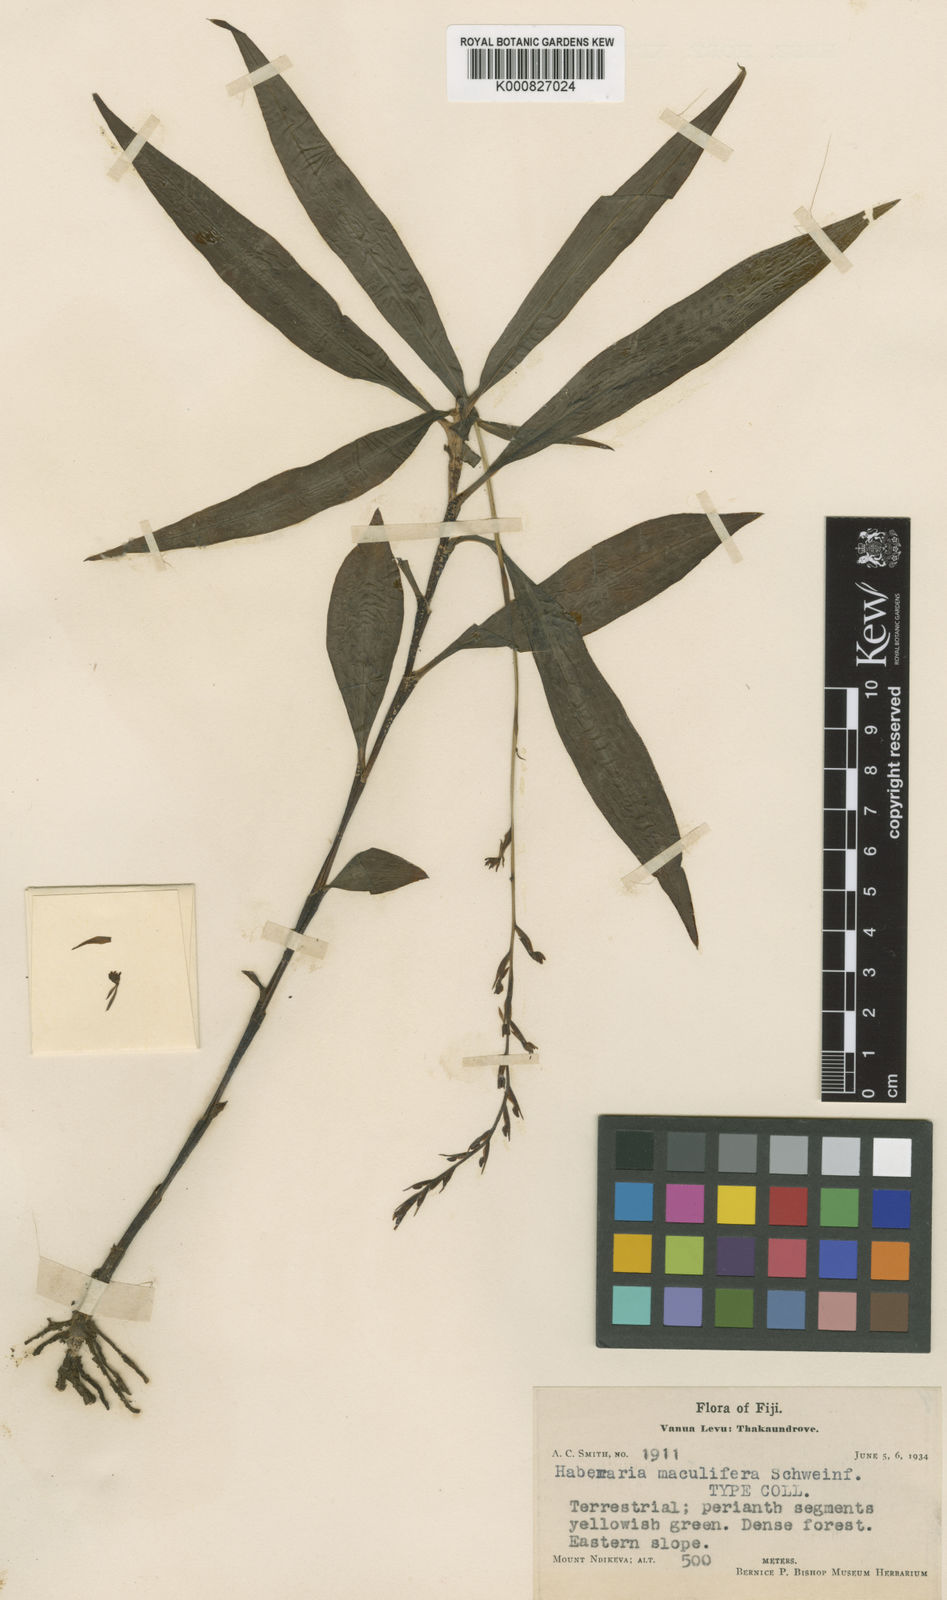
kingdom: Plantae
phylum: Tracheophyta
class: Liliopsida
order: Asparagales
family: Orchidaceae
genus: Peristylus
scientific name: Peristylus maculifer
